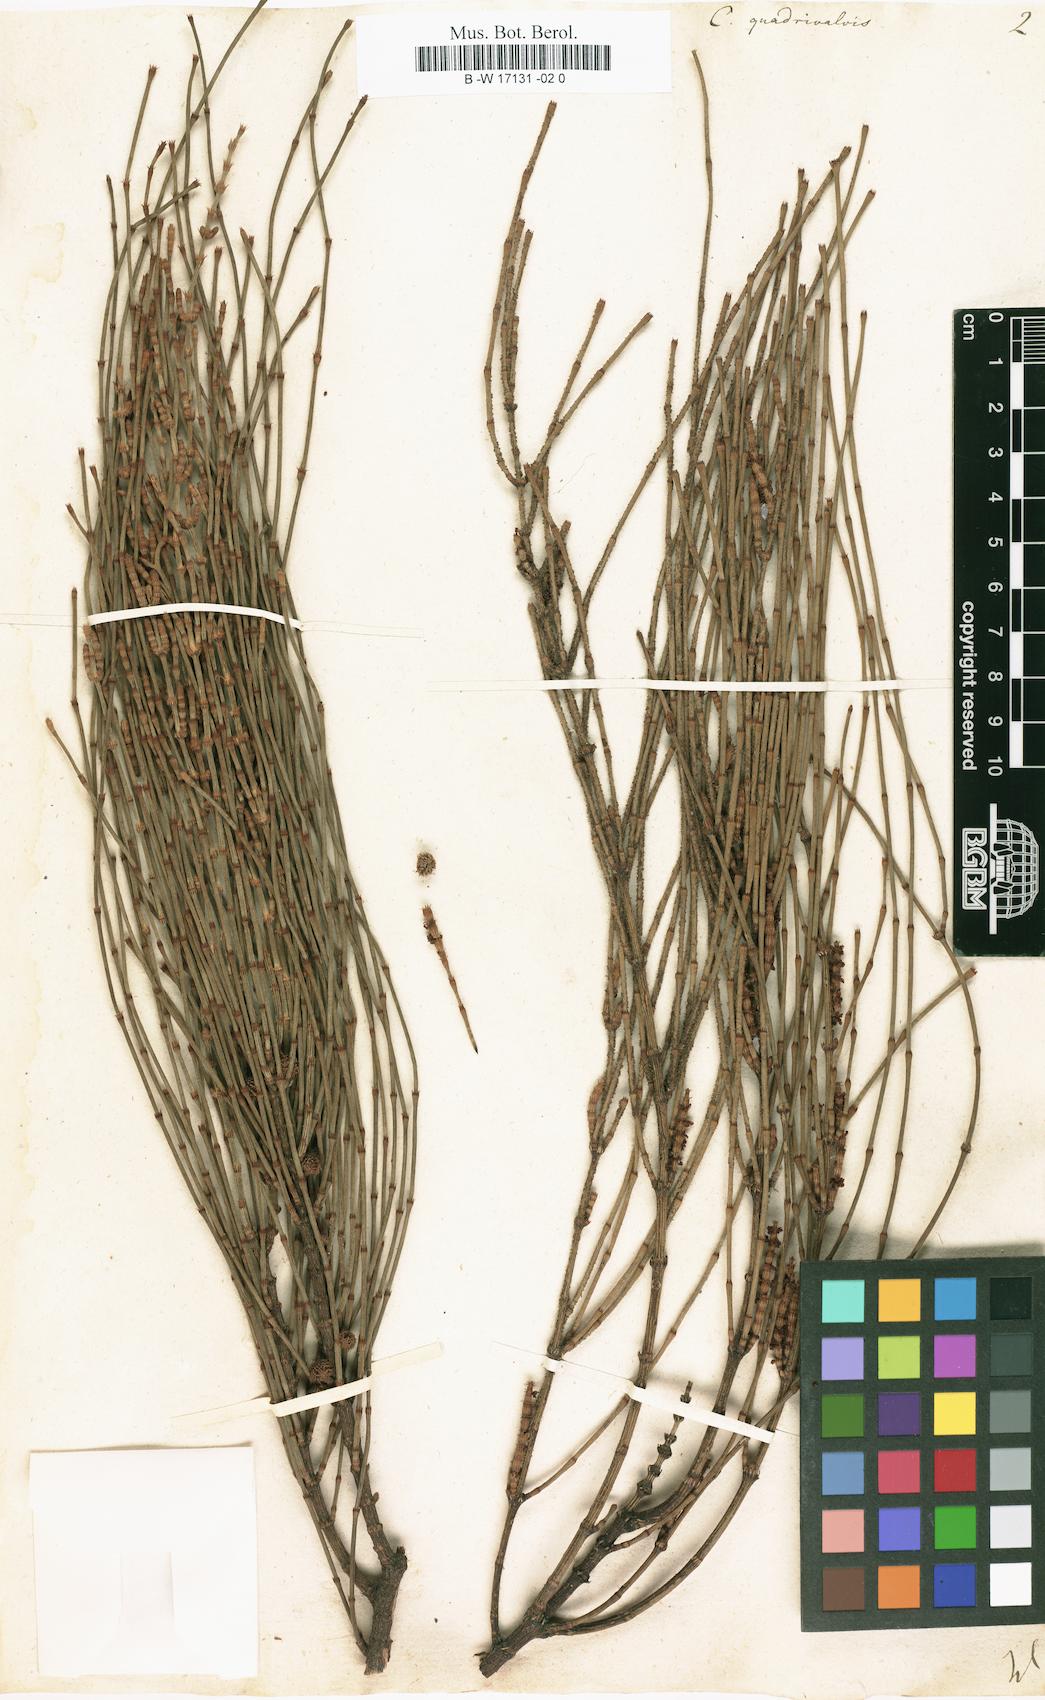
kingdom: Plantae
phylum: Tracheophyta
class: Magnoliopsida
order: Fagales
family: Casuarinaceae
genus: Allocasuarina
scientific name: Allocasuarina verticillata
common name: Drooping she-oak
